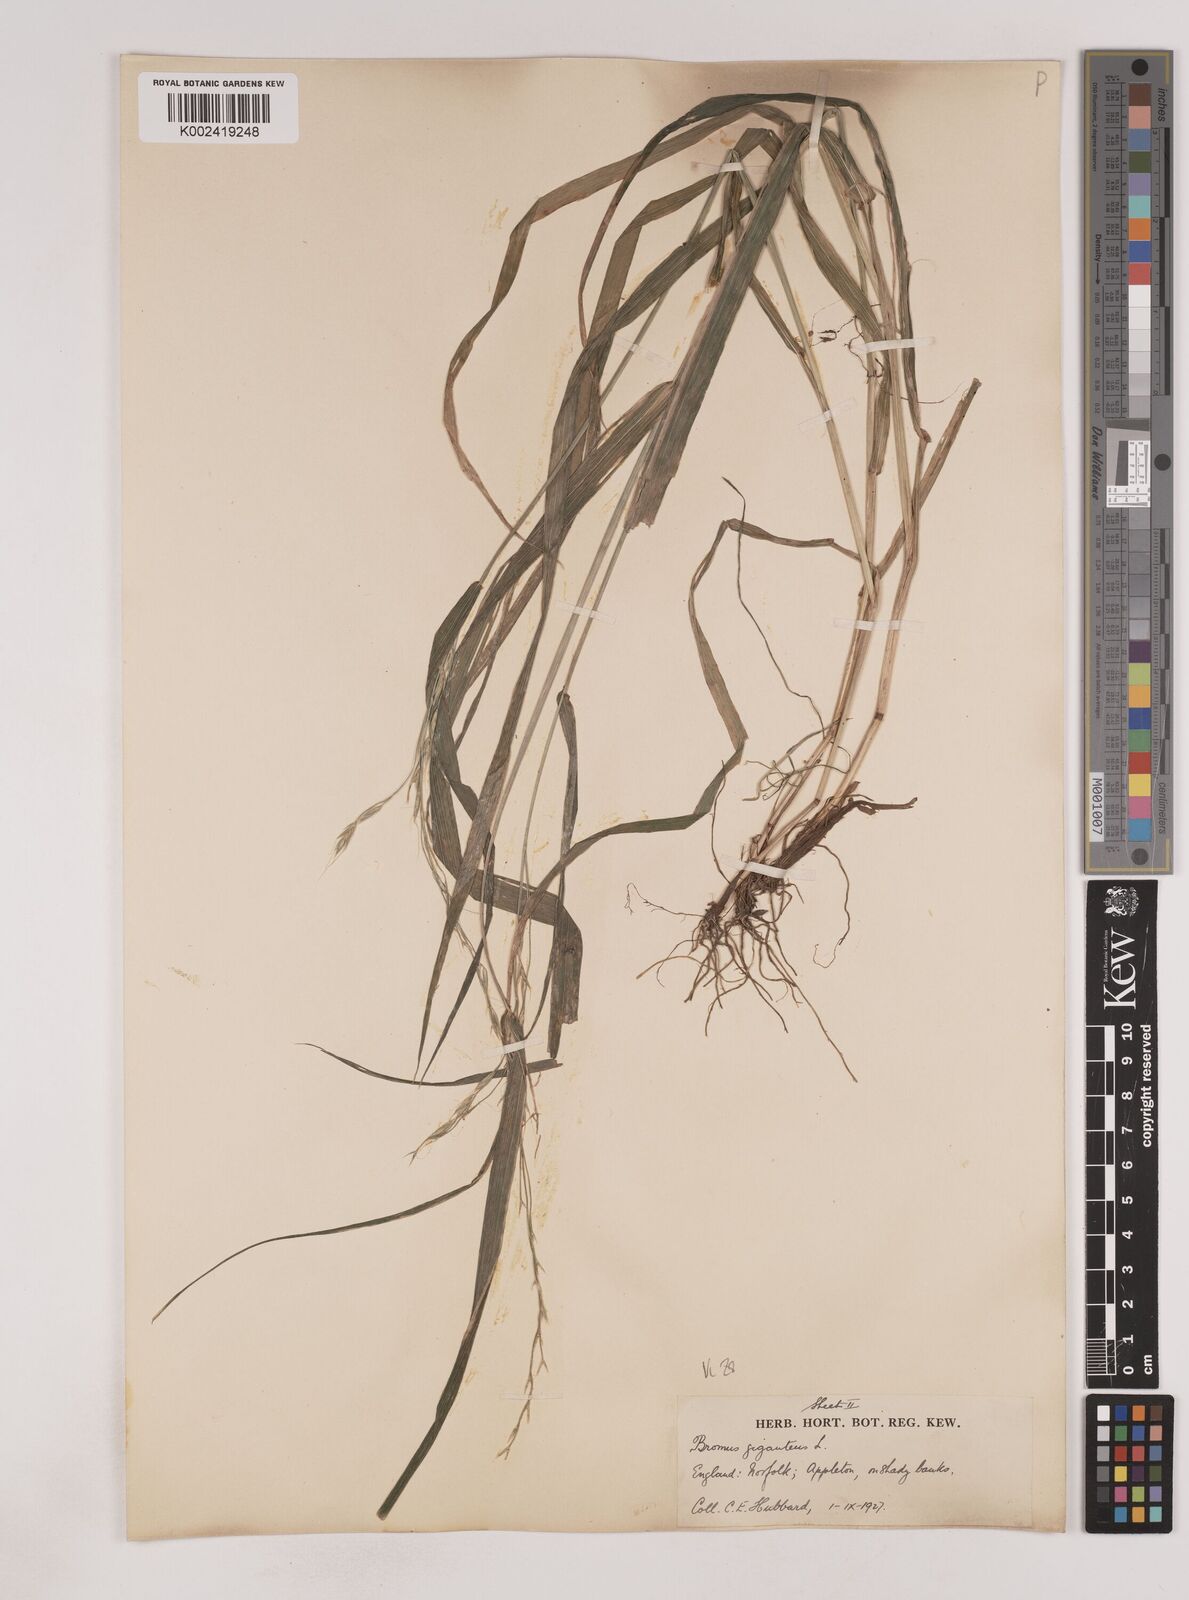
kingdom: Plantae
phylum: Tracheophyta
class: Liliopsida
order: Poales
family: Poaceae
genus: Lolium
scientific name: Lolium giganteum
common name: Giant fescue
